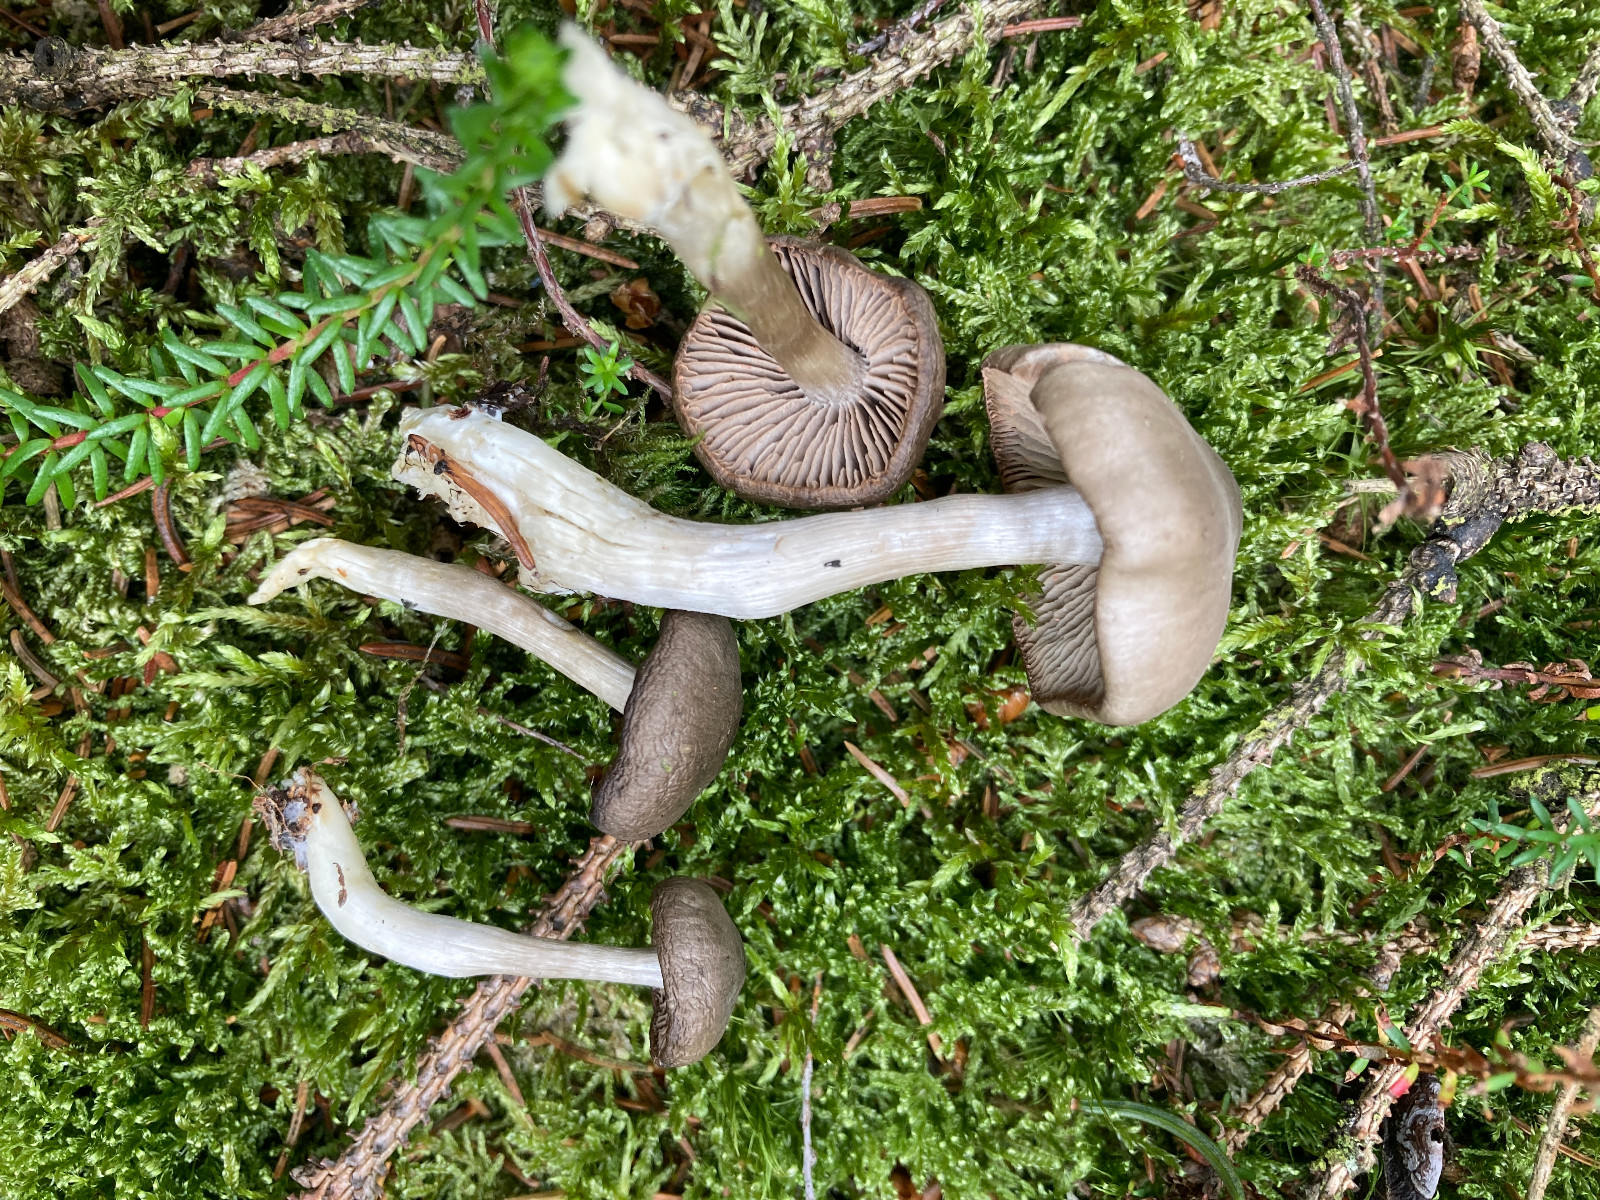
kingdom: Fungi
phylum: Basidiomycota
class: Agaricomycetes
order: Agaricales
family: Entolomataceae
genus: Entocybe
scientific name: Entocybe turbida
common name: plantage-rødblad
